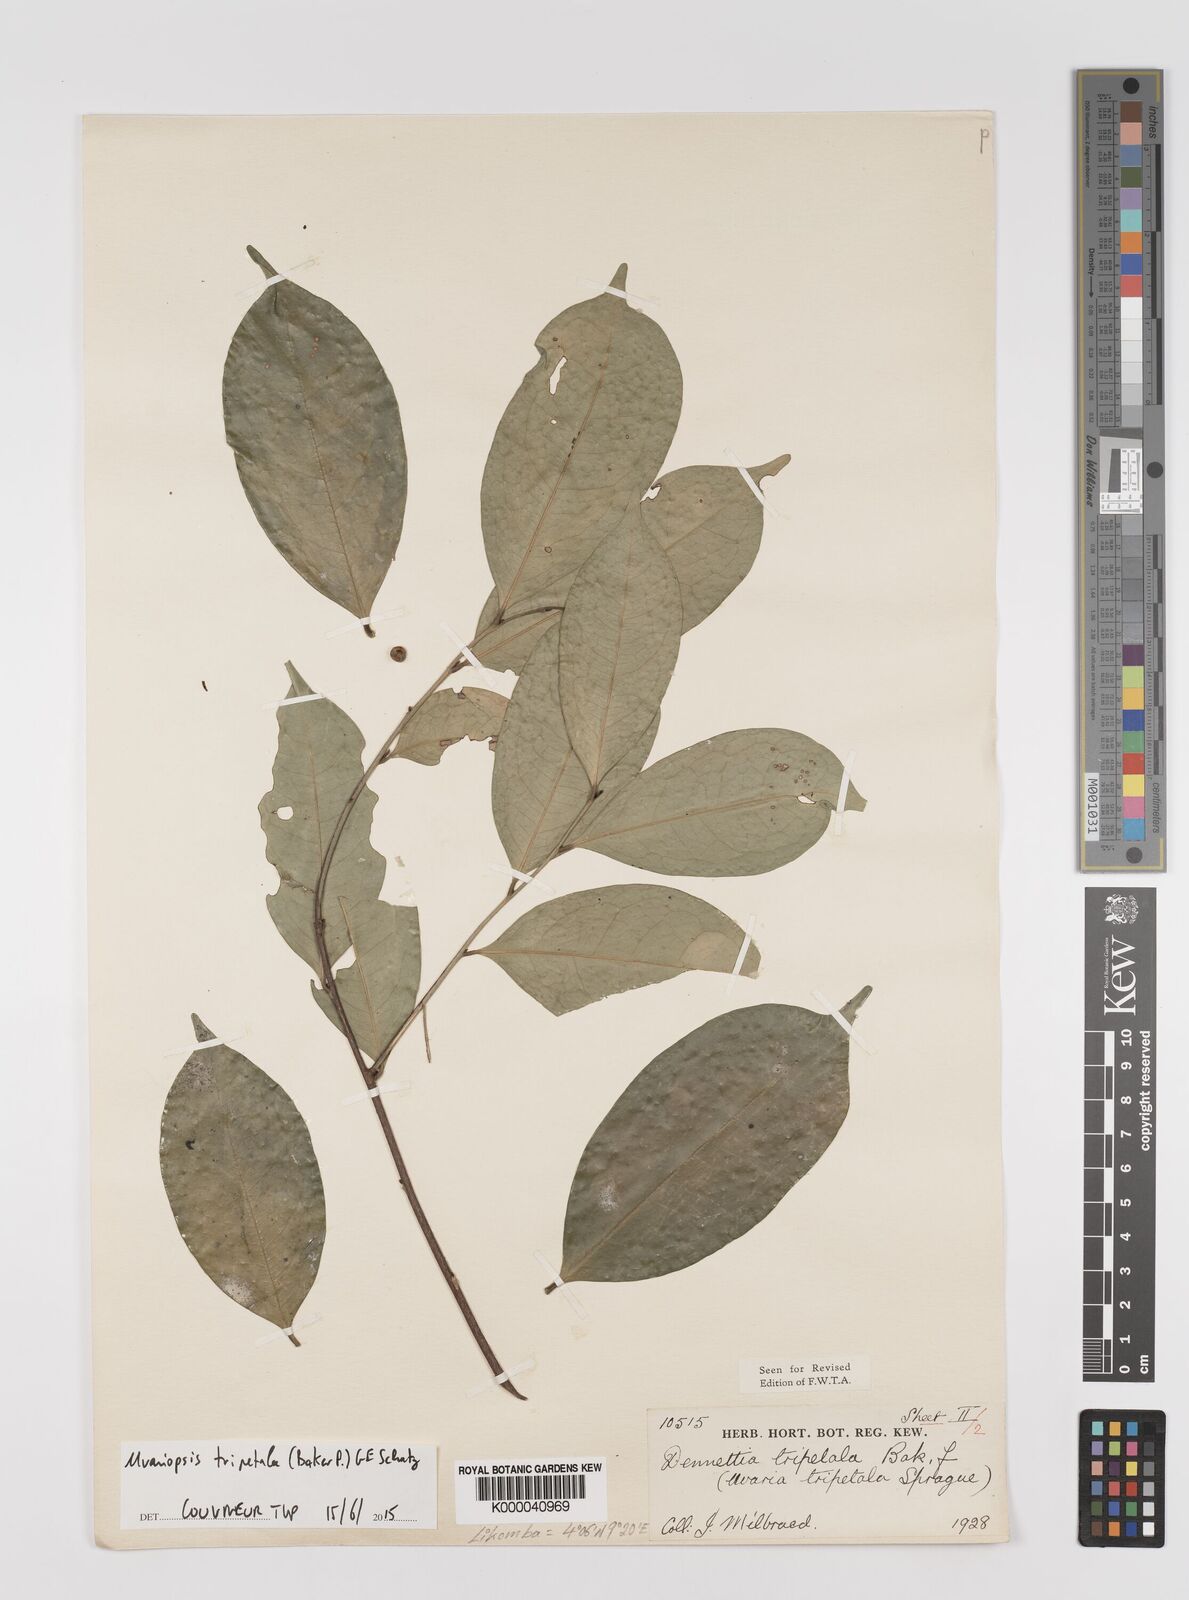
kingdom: Plantae
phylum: Tracheophyta
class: Magnoliopsida
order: Magnoliales
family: Annonaceae
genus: Uvariopsis
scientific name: Uvariopsis tripetala
